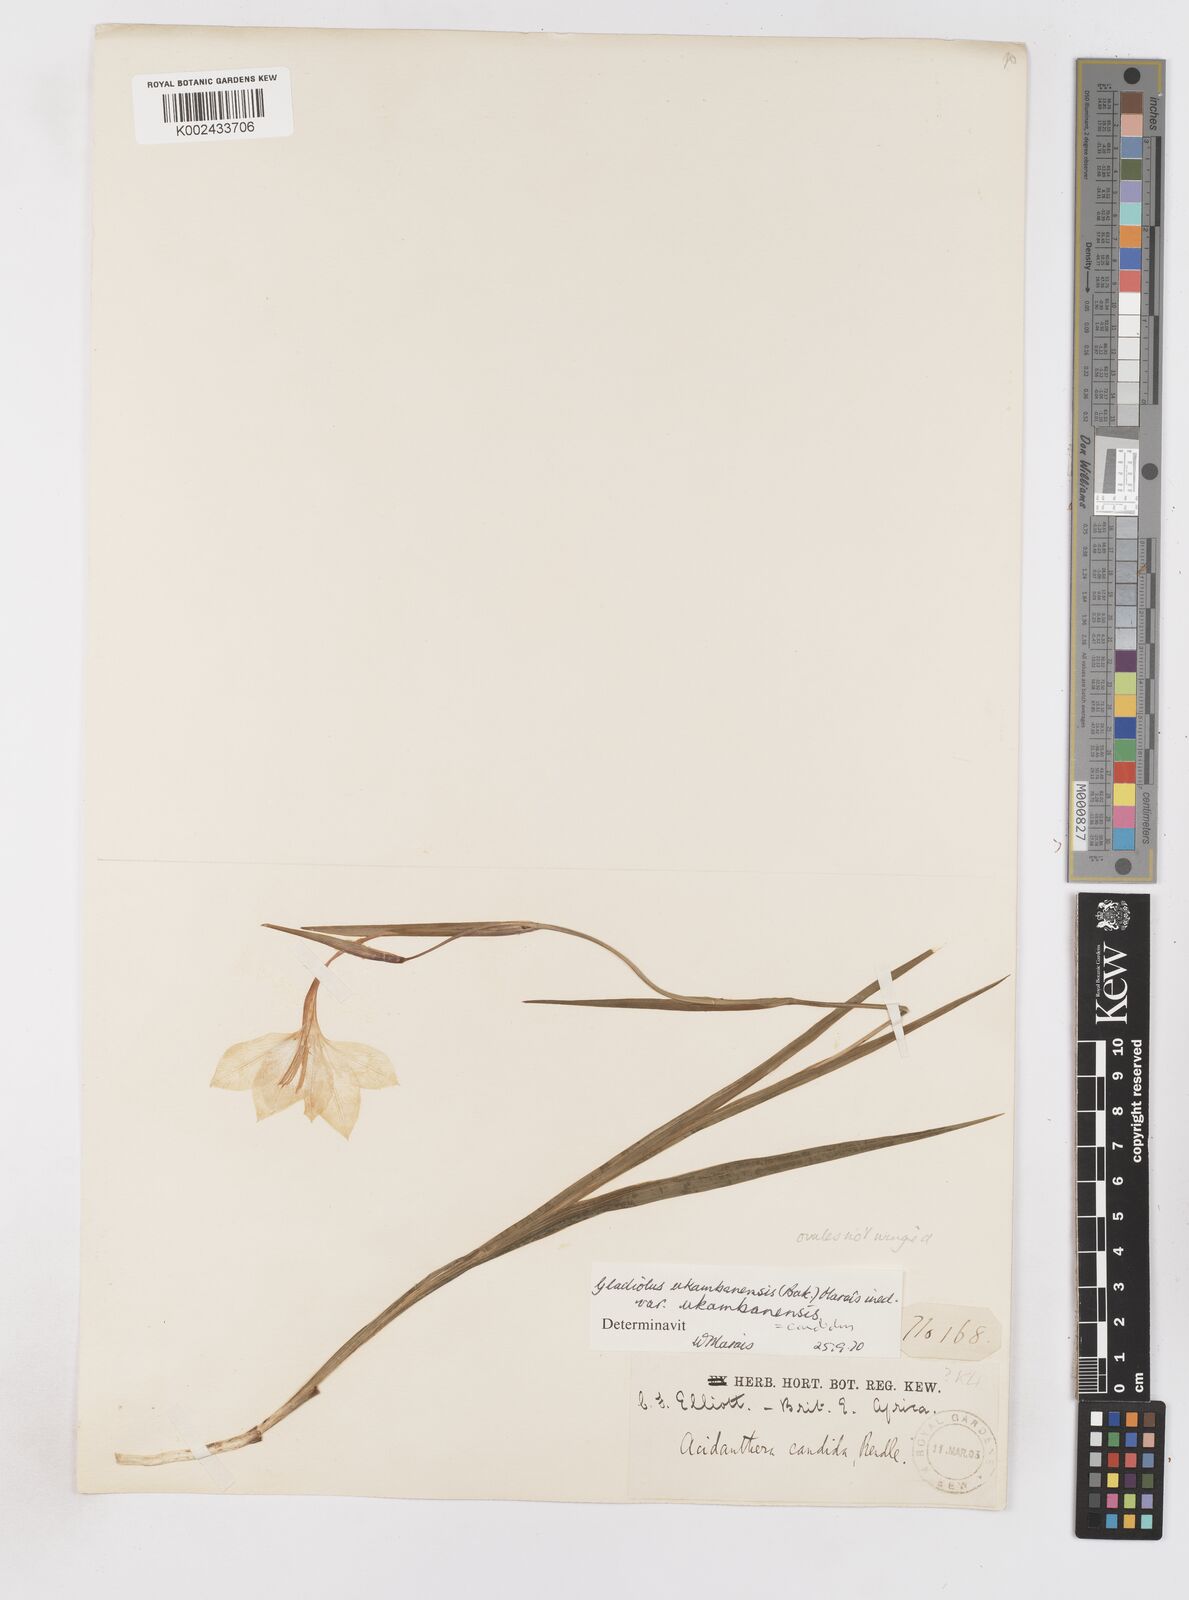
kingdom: Plantae
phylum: Tracheophyta
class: Liliopsida
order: Asparagales
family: Iridaceae
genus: Gladiolus
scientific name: Gladiolus candidus
